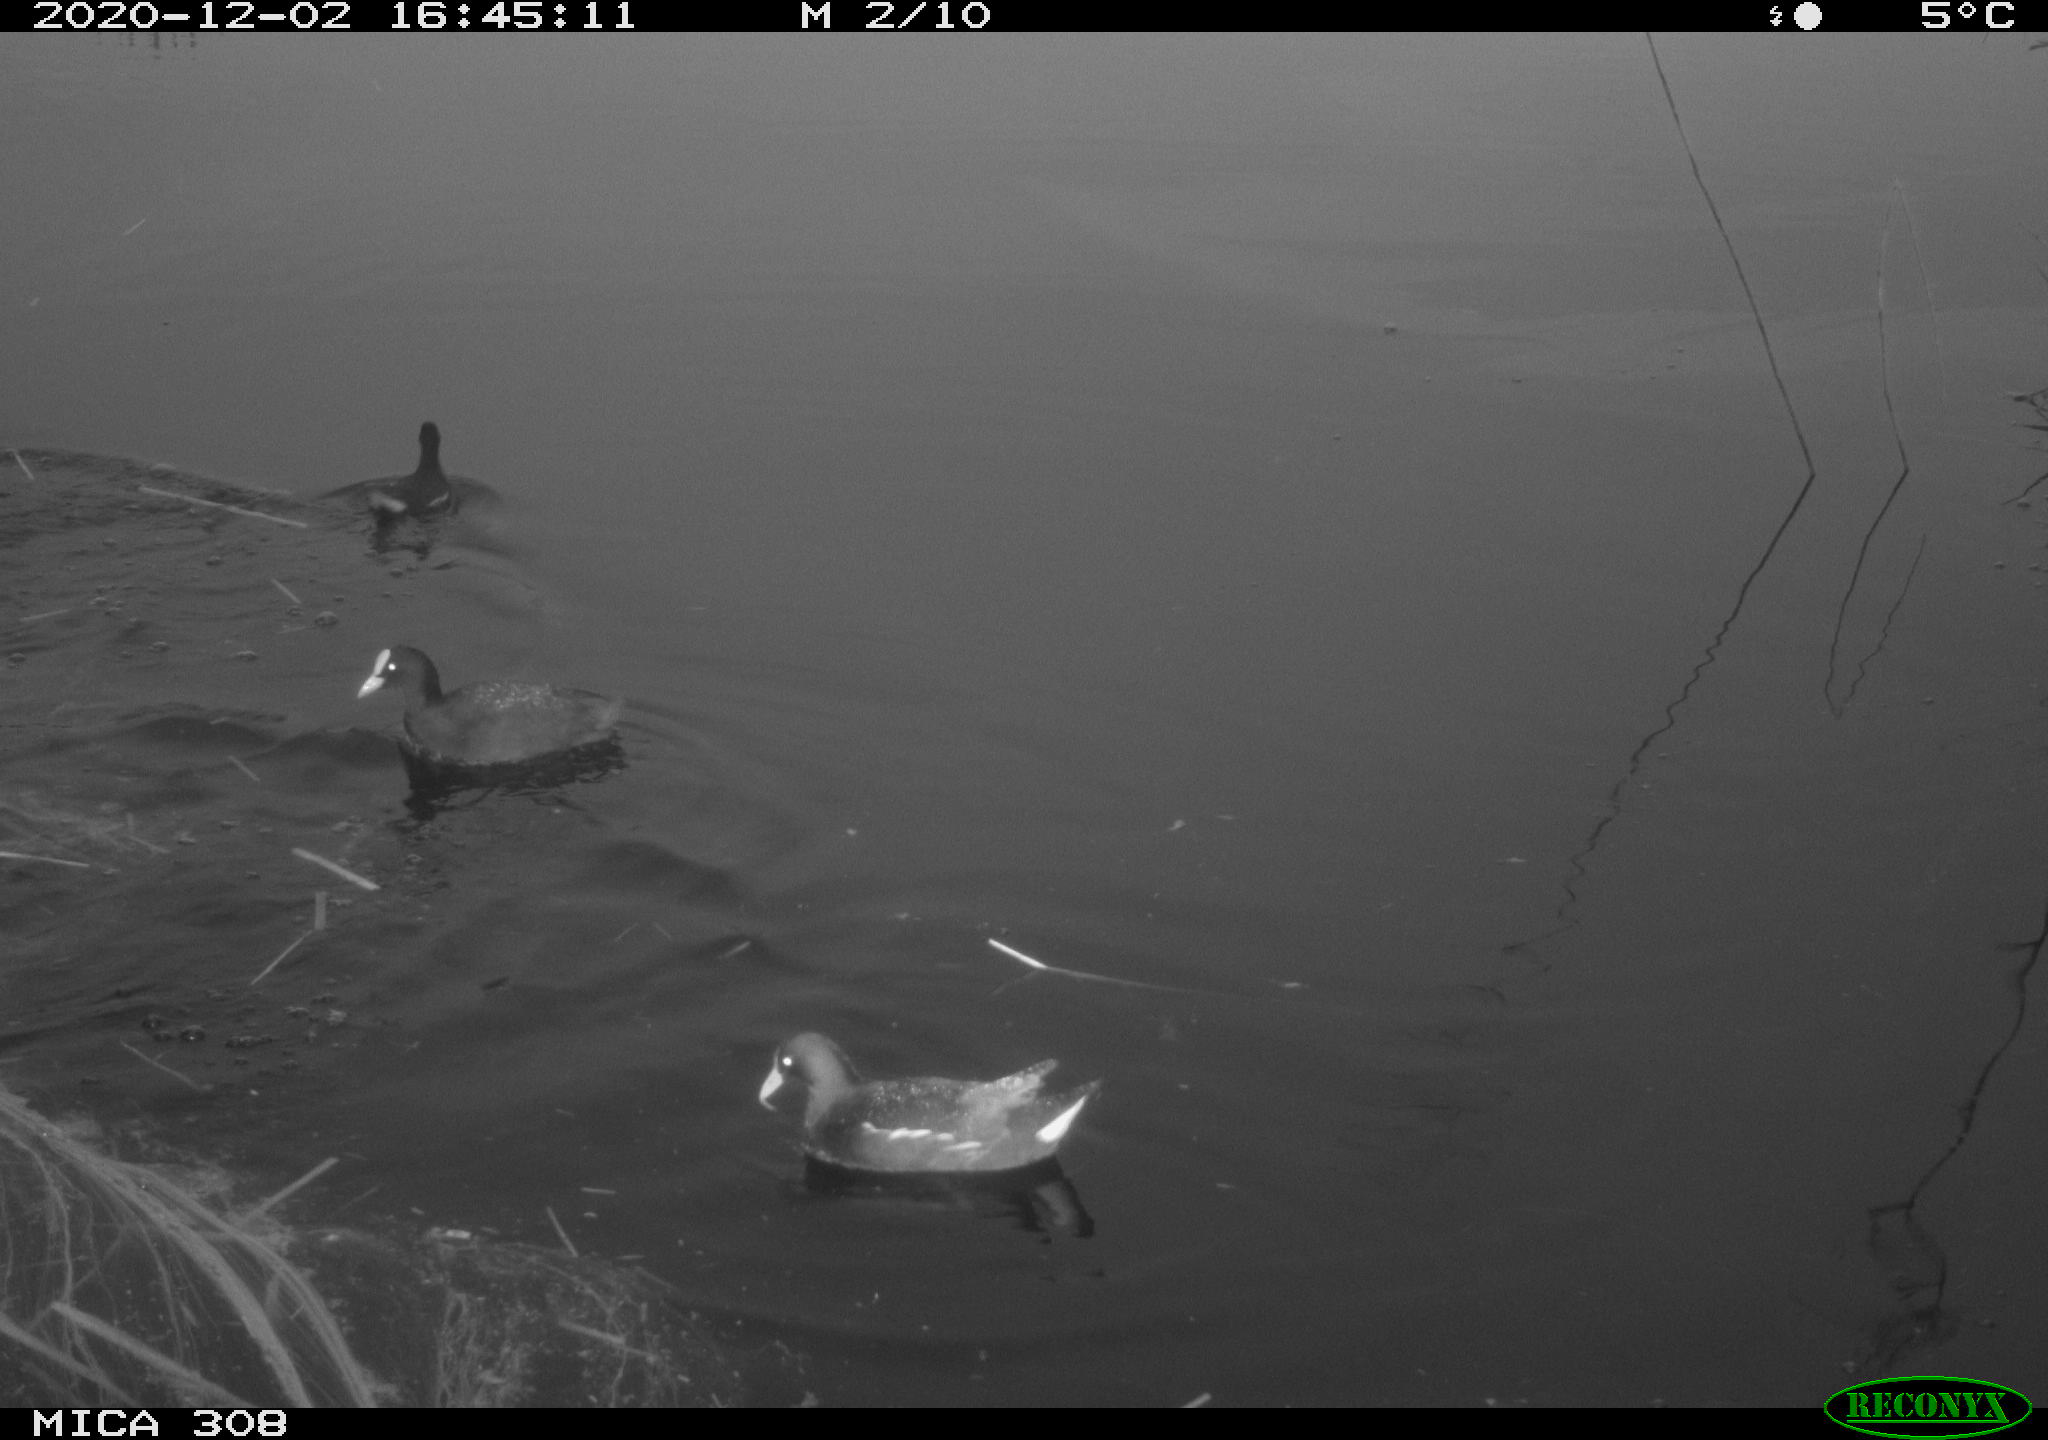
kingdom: Animalia
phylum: Chordata
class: Aves
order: Gruiformes
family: Rallidae
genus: Fulica
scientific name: Fulica atra
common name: Eurasian coot
